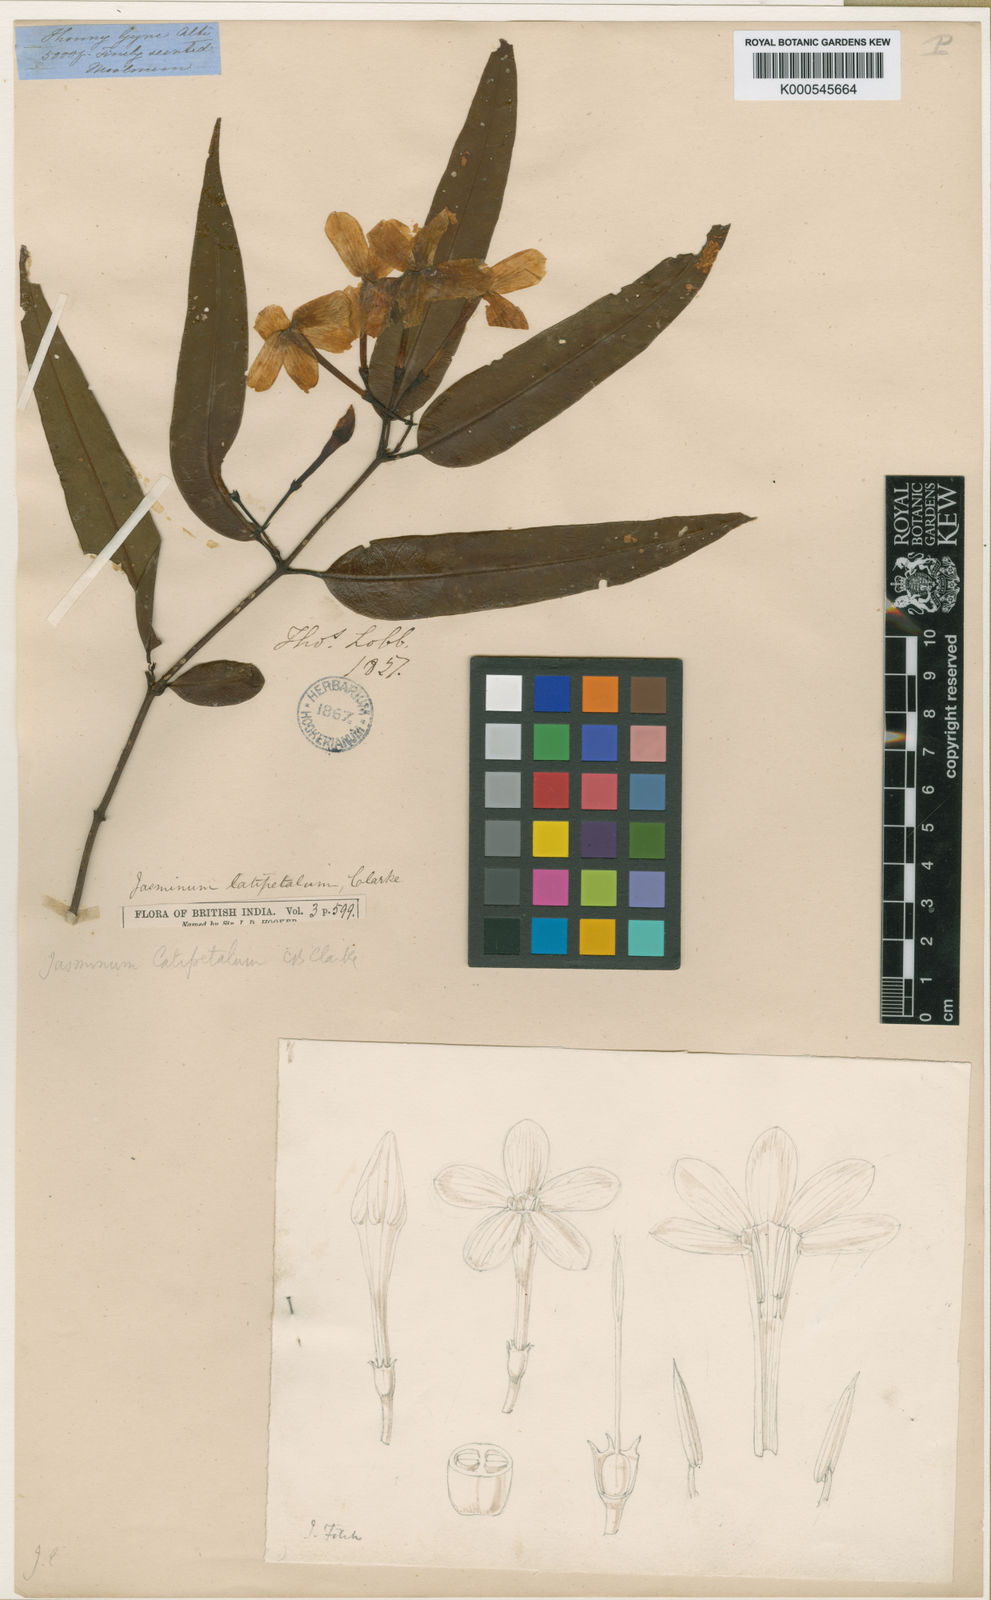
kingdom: Plantae
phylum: Tracheophyta
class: Magnoliopsida
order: Lamiales
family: Oleaceae
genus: Jasminum
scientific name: Jasminum latipetalum
